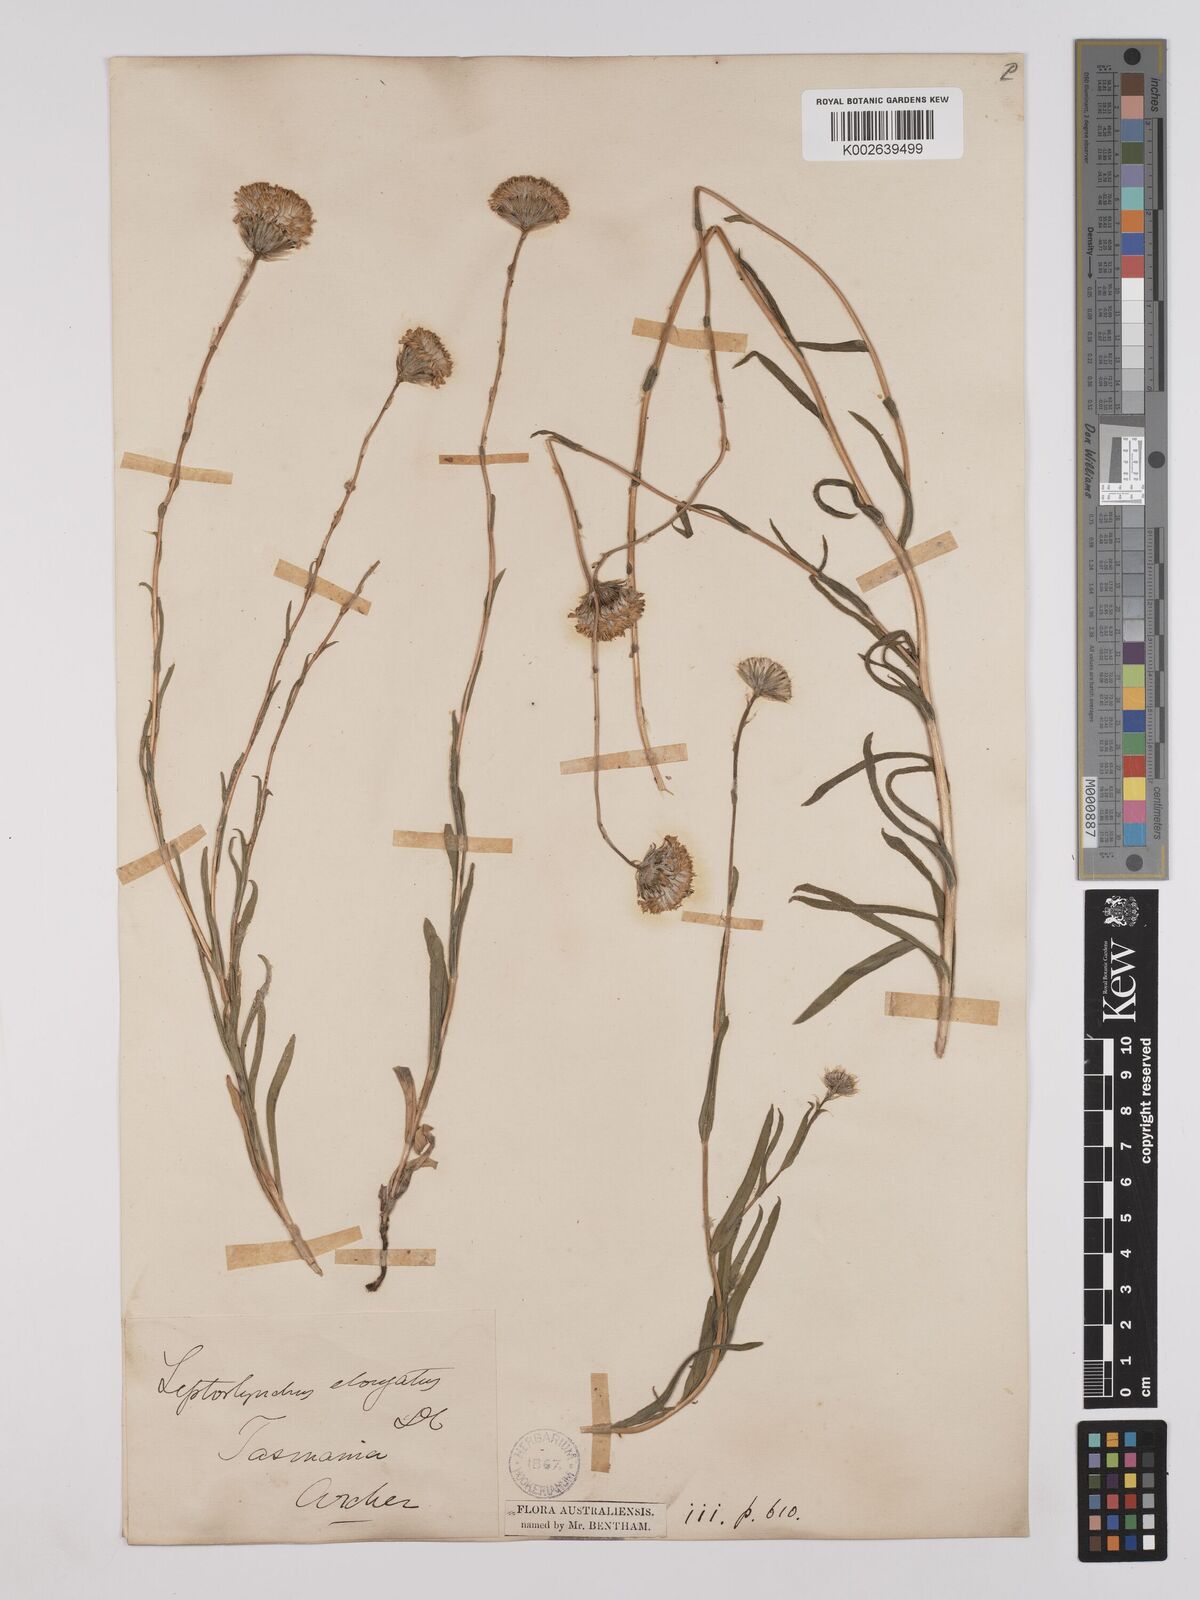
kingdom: Plantae
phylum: Tracheophyta
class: Magnoliopsida
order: Asterales
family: Asteraceae
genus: Leptorhynchos
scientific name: Leptorhynchos elongatus
